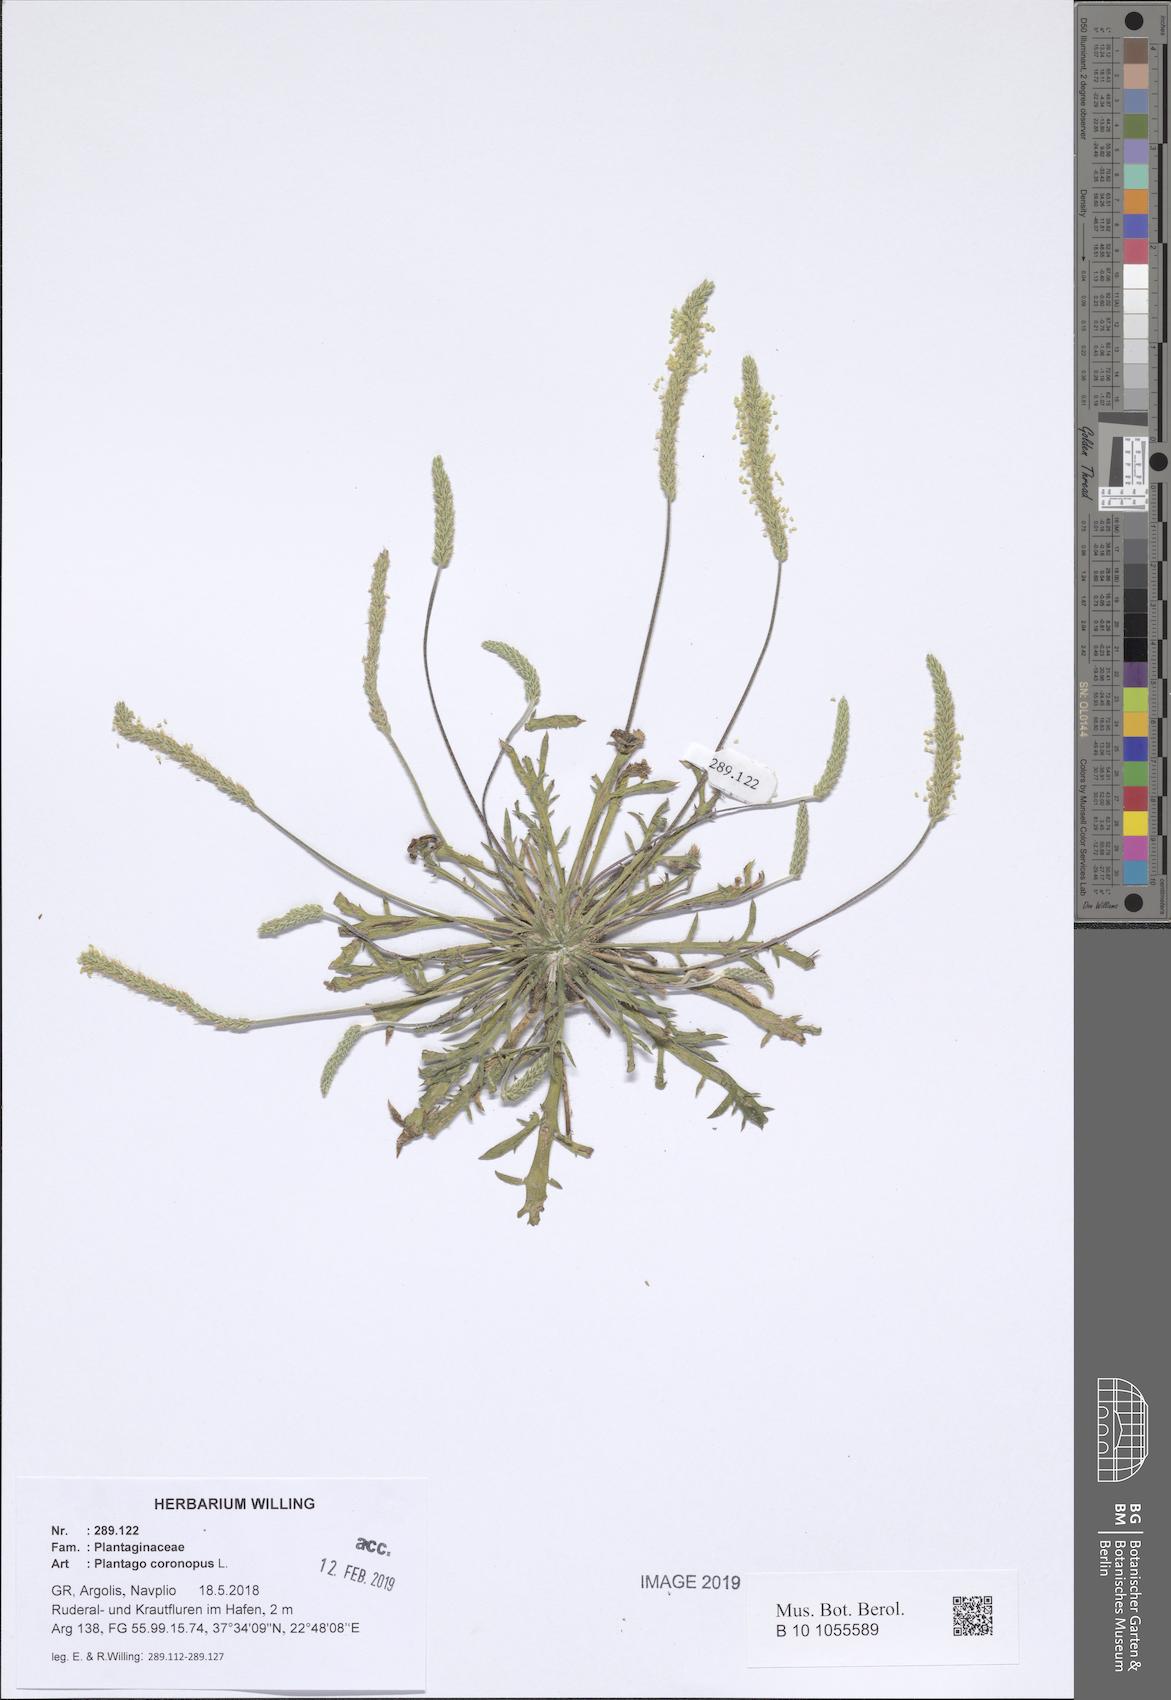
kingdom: Plantae
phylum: Tracheophyta
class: Magnoliopsida
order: Lamiales
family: Plantaginaceae
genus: Plantago
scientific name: Plantago coronopus
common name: Buck's-horn plantain
